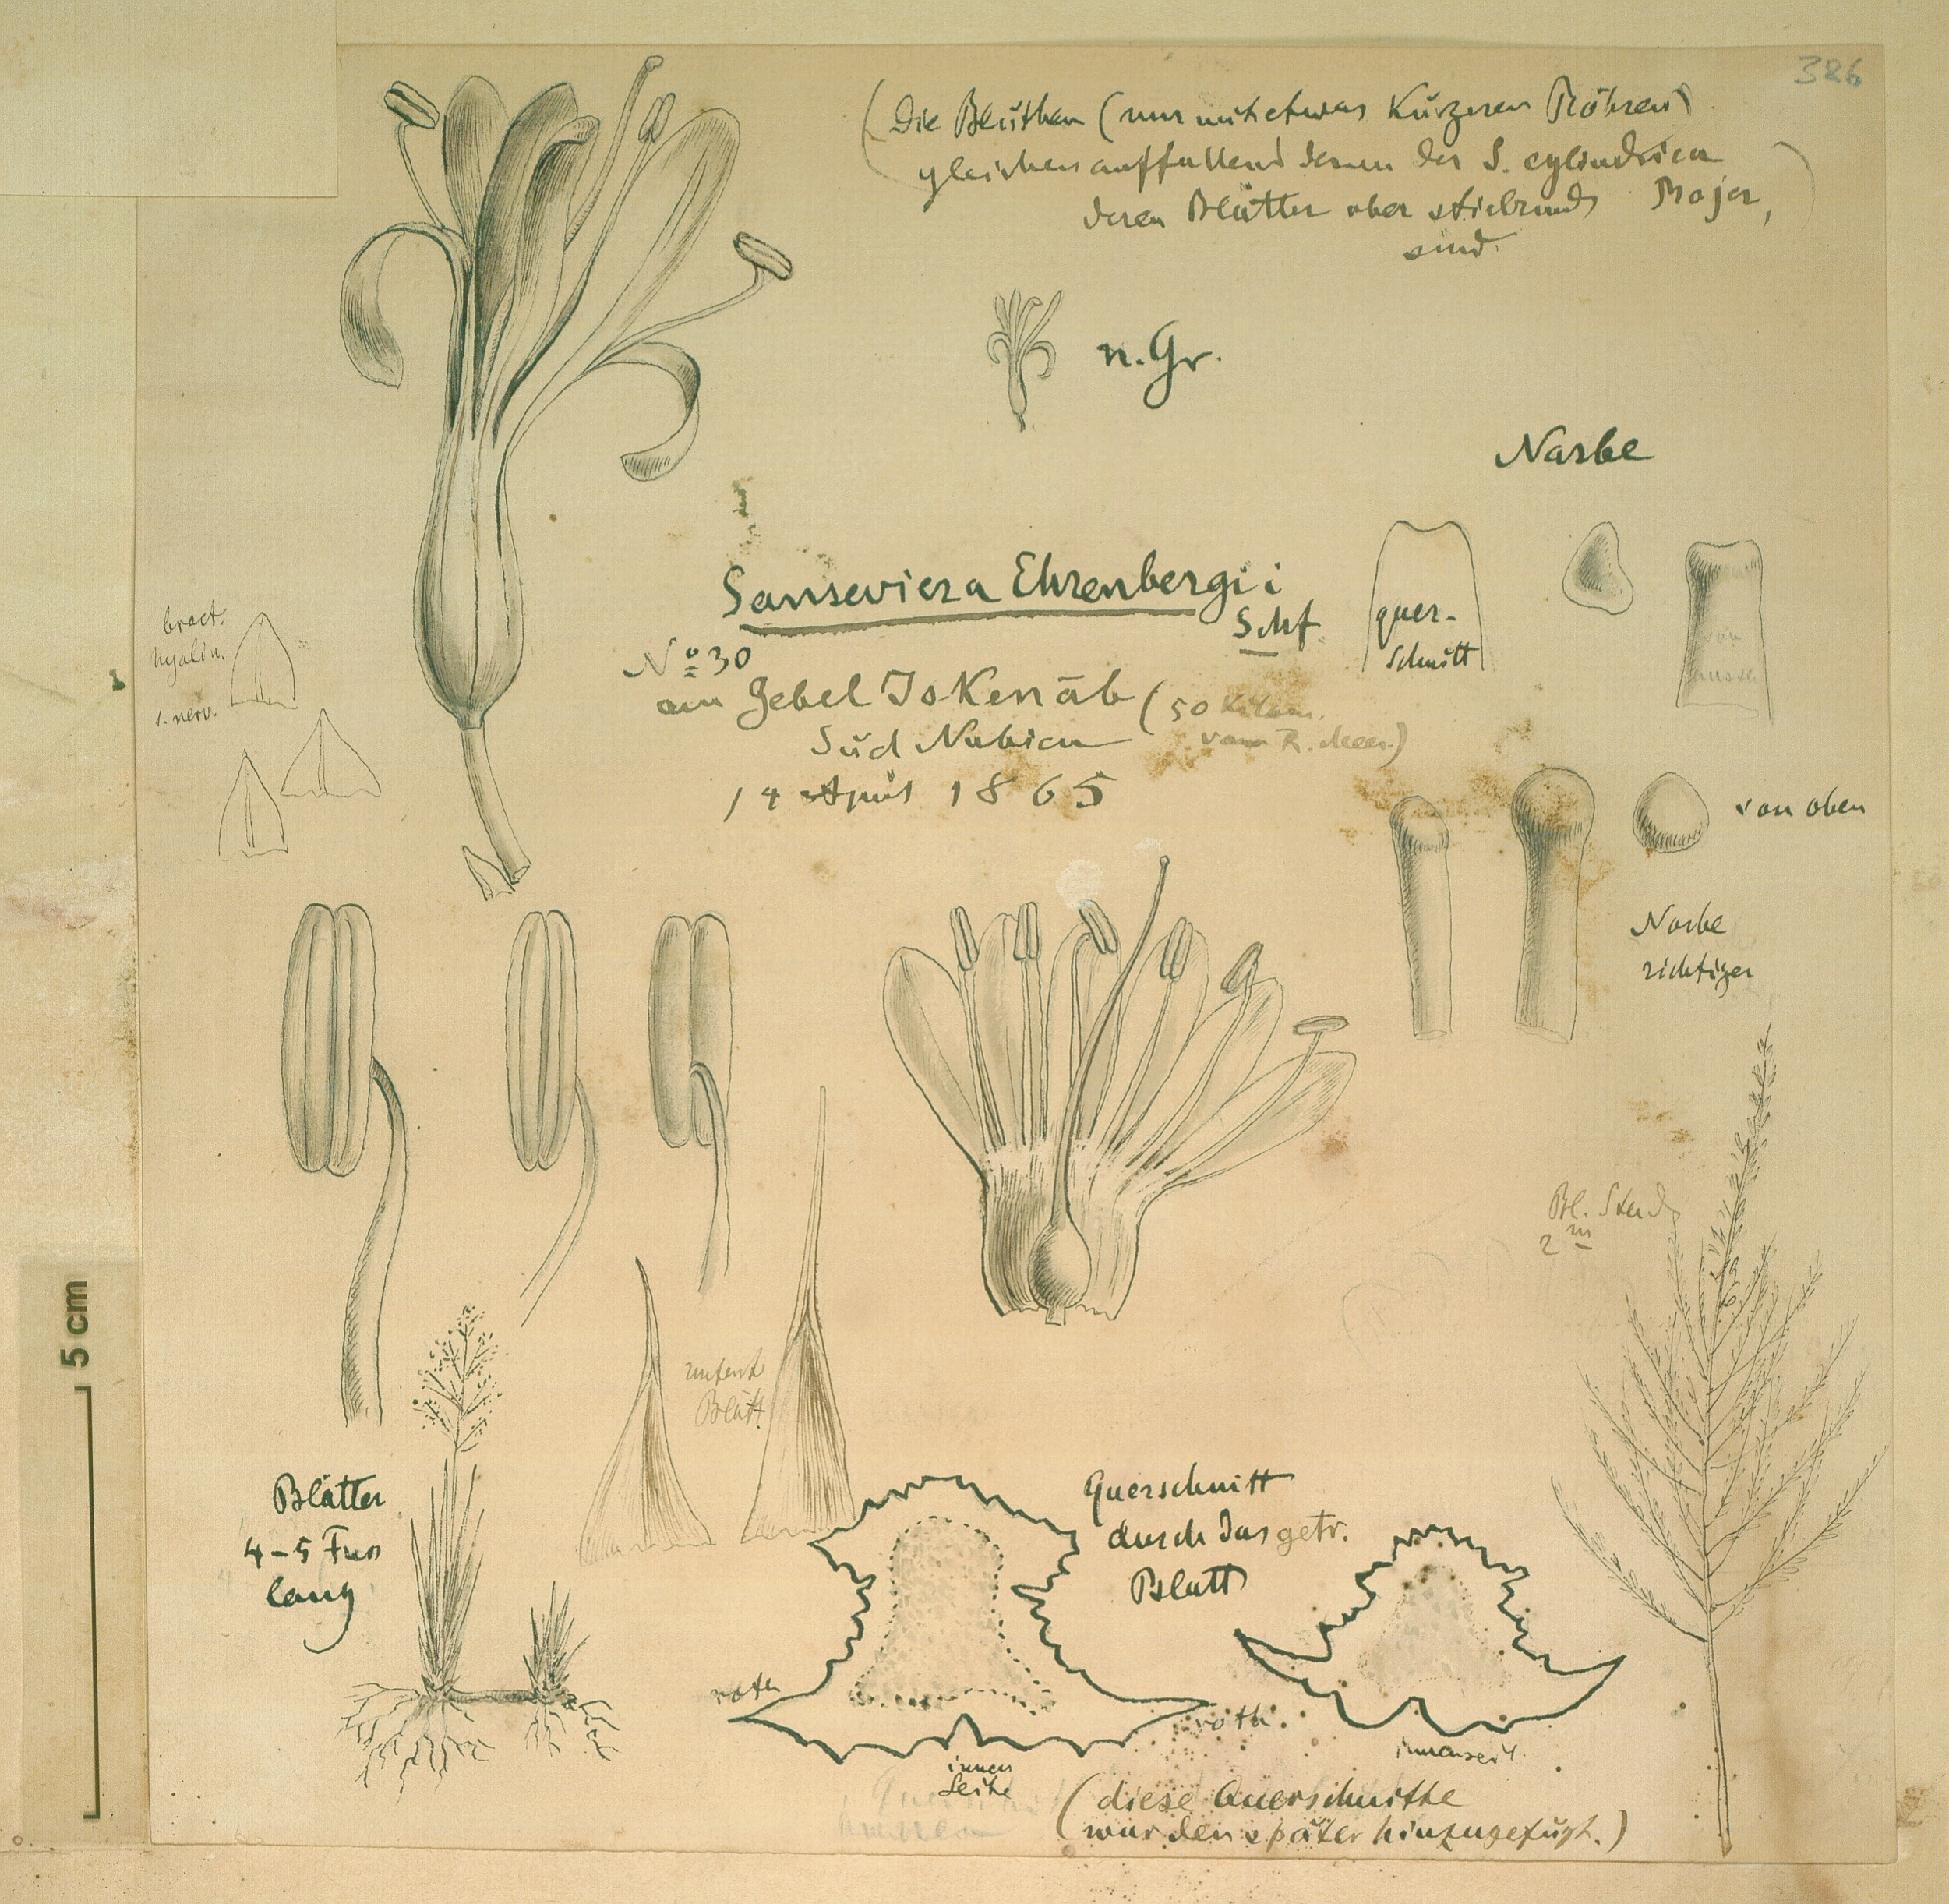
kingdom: Plantae
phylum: Tracheophyta
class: Liliopsida
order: Asparagales
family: Asparagaceae
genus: Dracaena
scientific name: Dracaena
